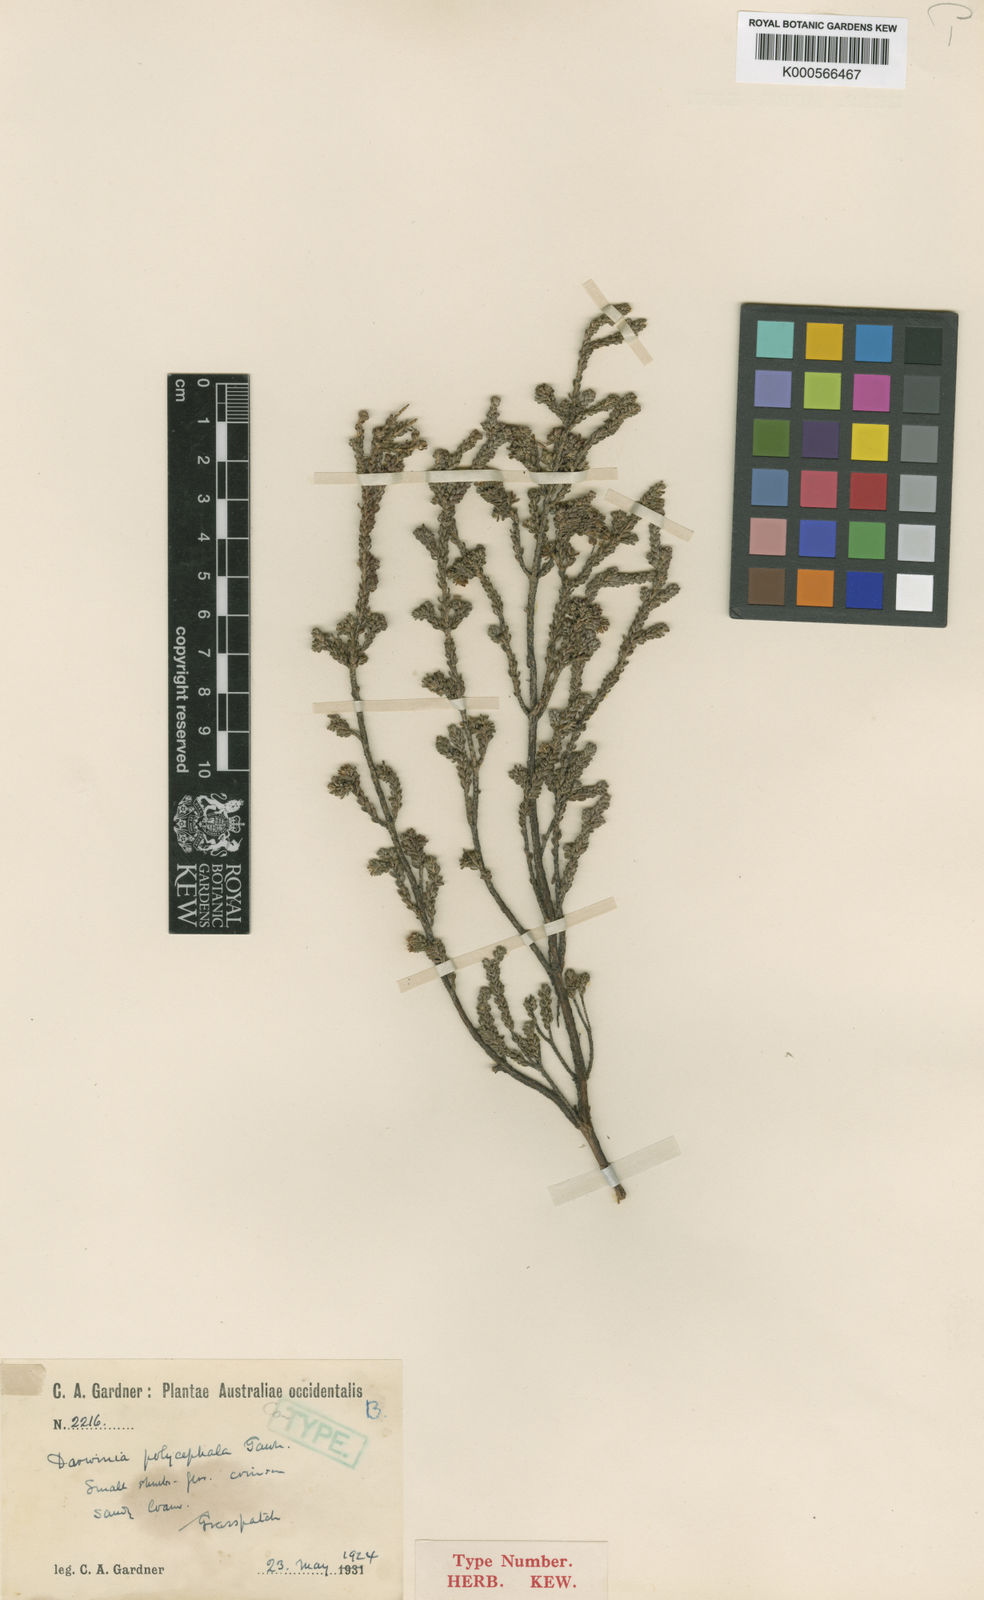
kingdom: Plantae
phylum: Tracheophyta
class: Magnoliopsida
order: Myrtales
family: Myrtaceae
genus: Darwinia
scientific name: Darwinia polycephala
